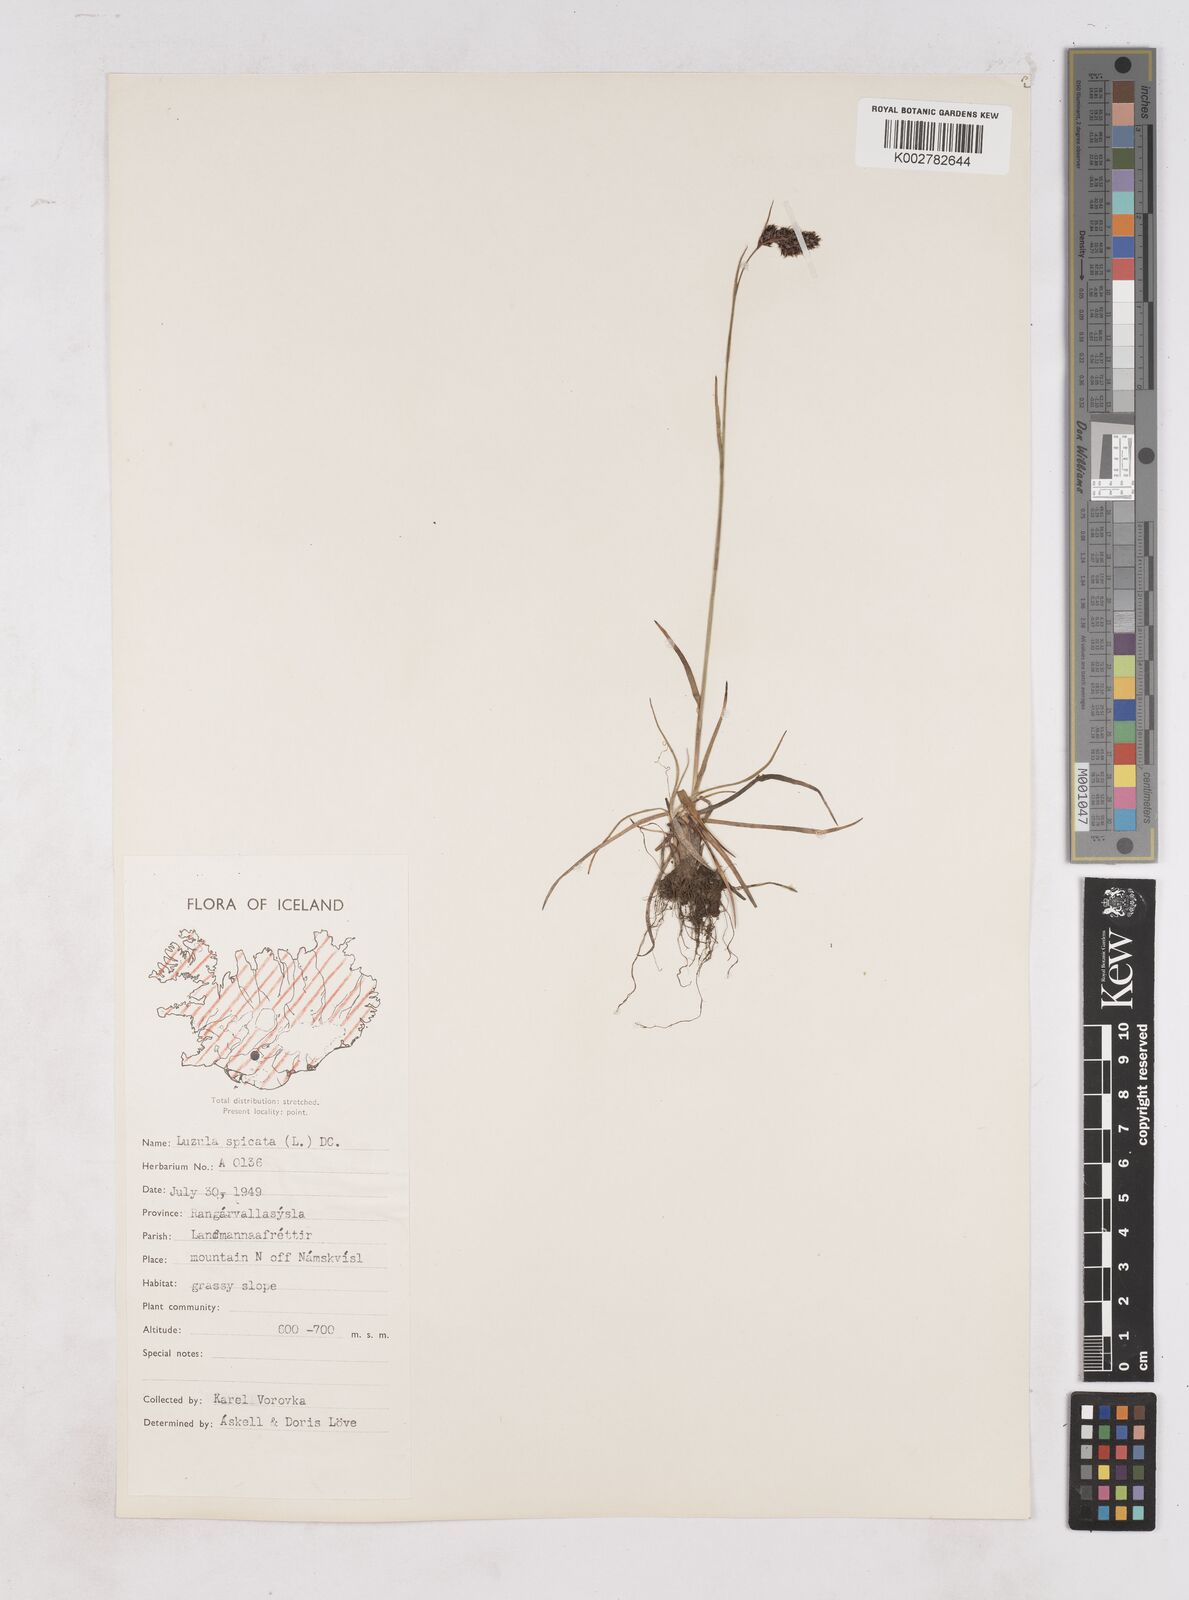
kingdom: Plantae
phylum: Tracheophyta
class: Liliopsida
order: Poales
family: Juncaceae
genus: Luzula
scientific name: Luzula spicata
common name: Spiked wood-rush
